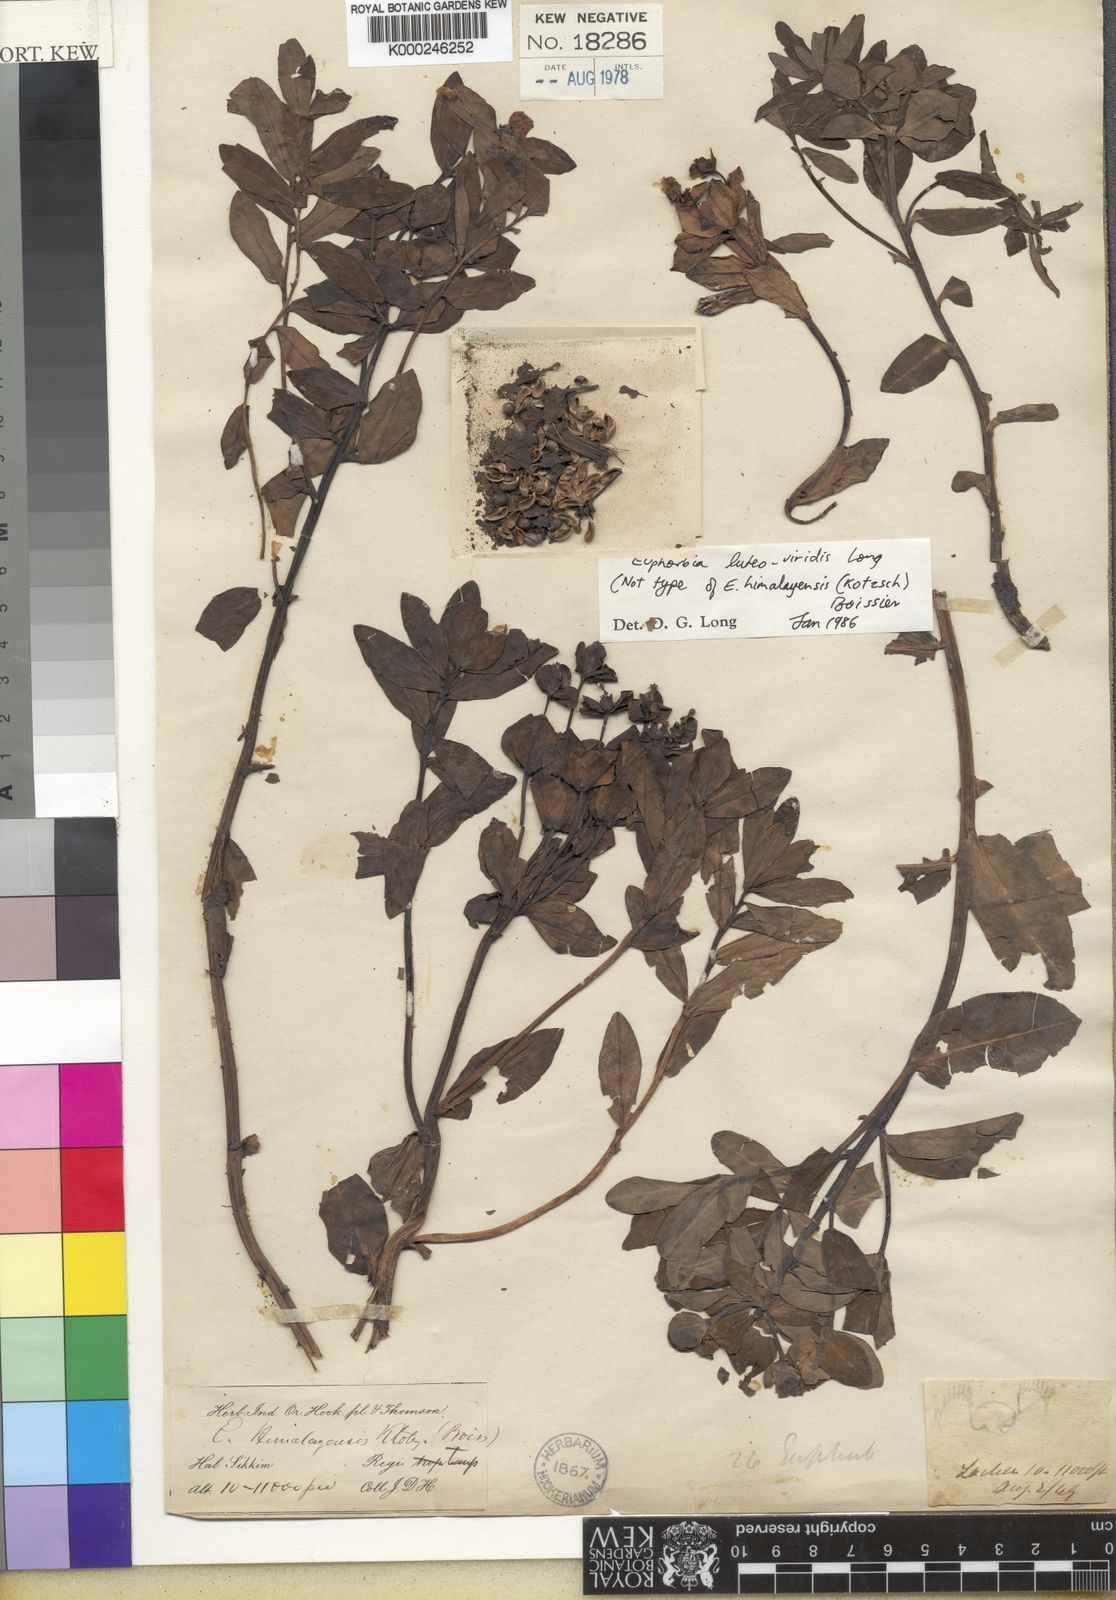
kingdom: Plantae
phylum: Tracheophyta
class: Magnoliopsida
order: Malpighiales
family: Euphorbiaceae
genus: Euphorbia
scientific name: Euphorbia stracheyi
